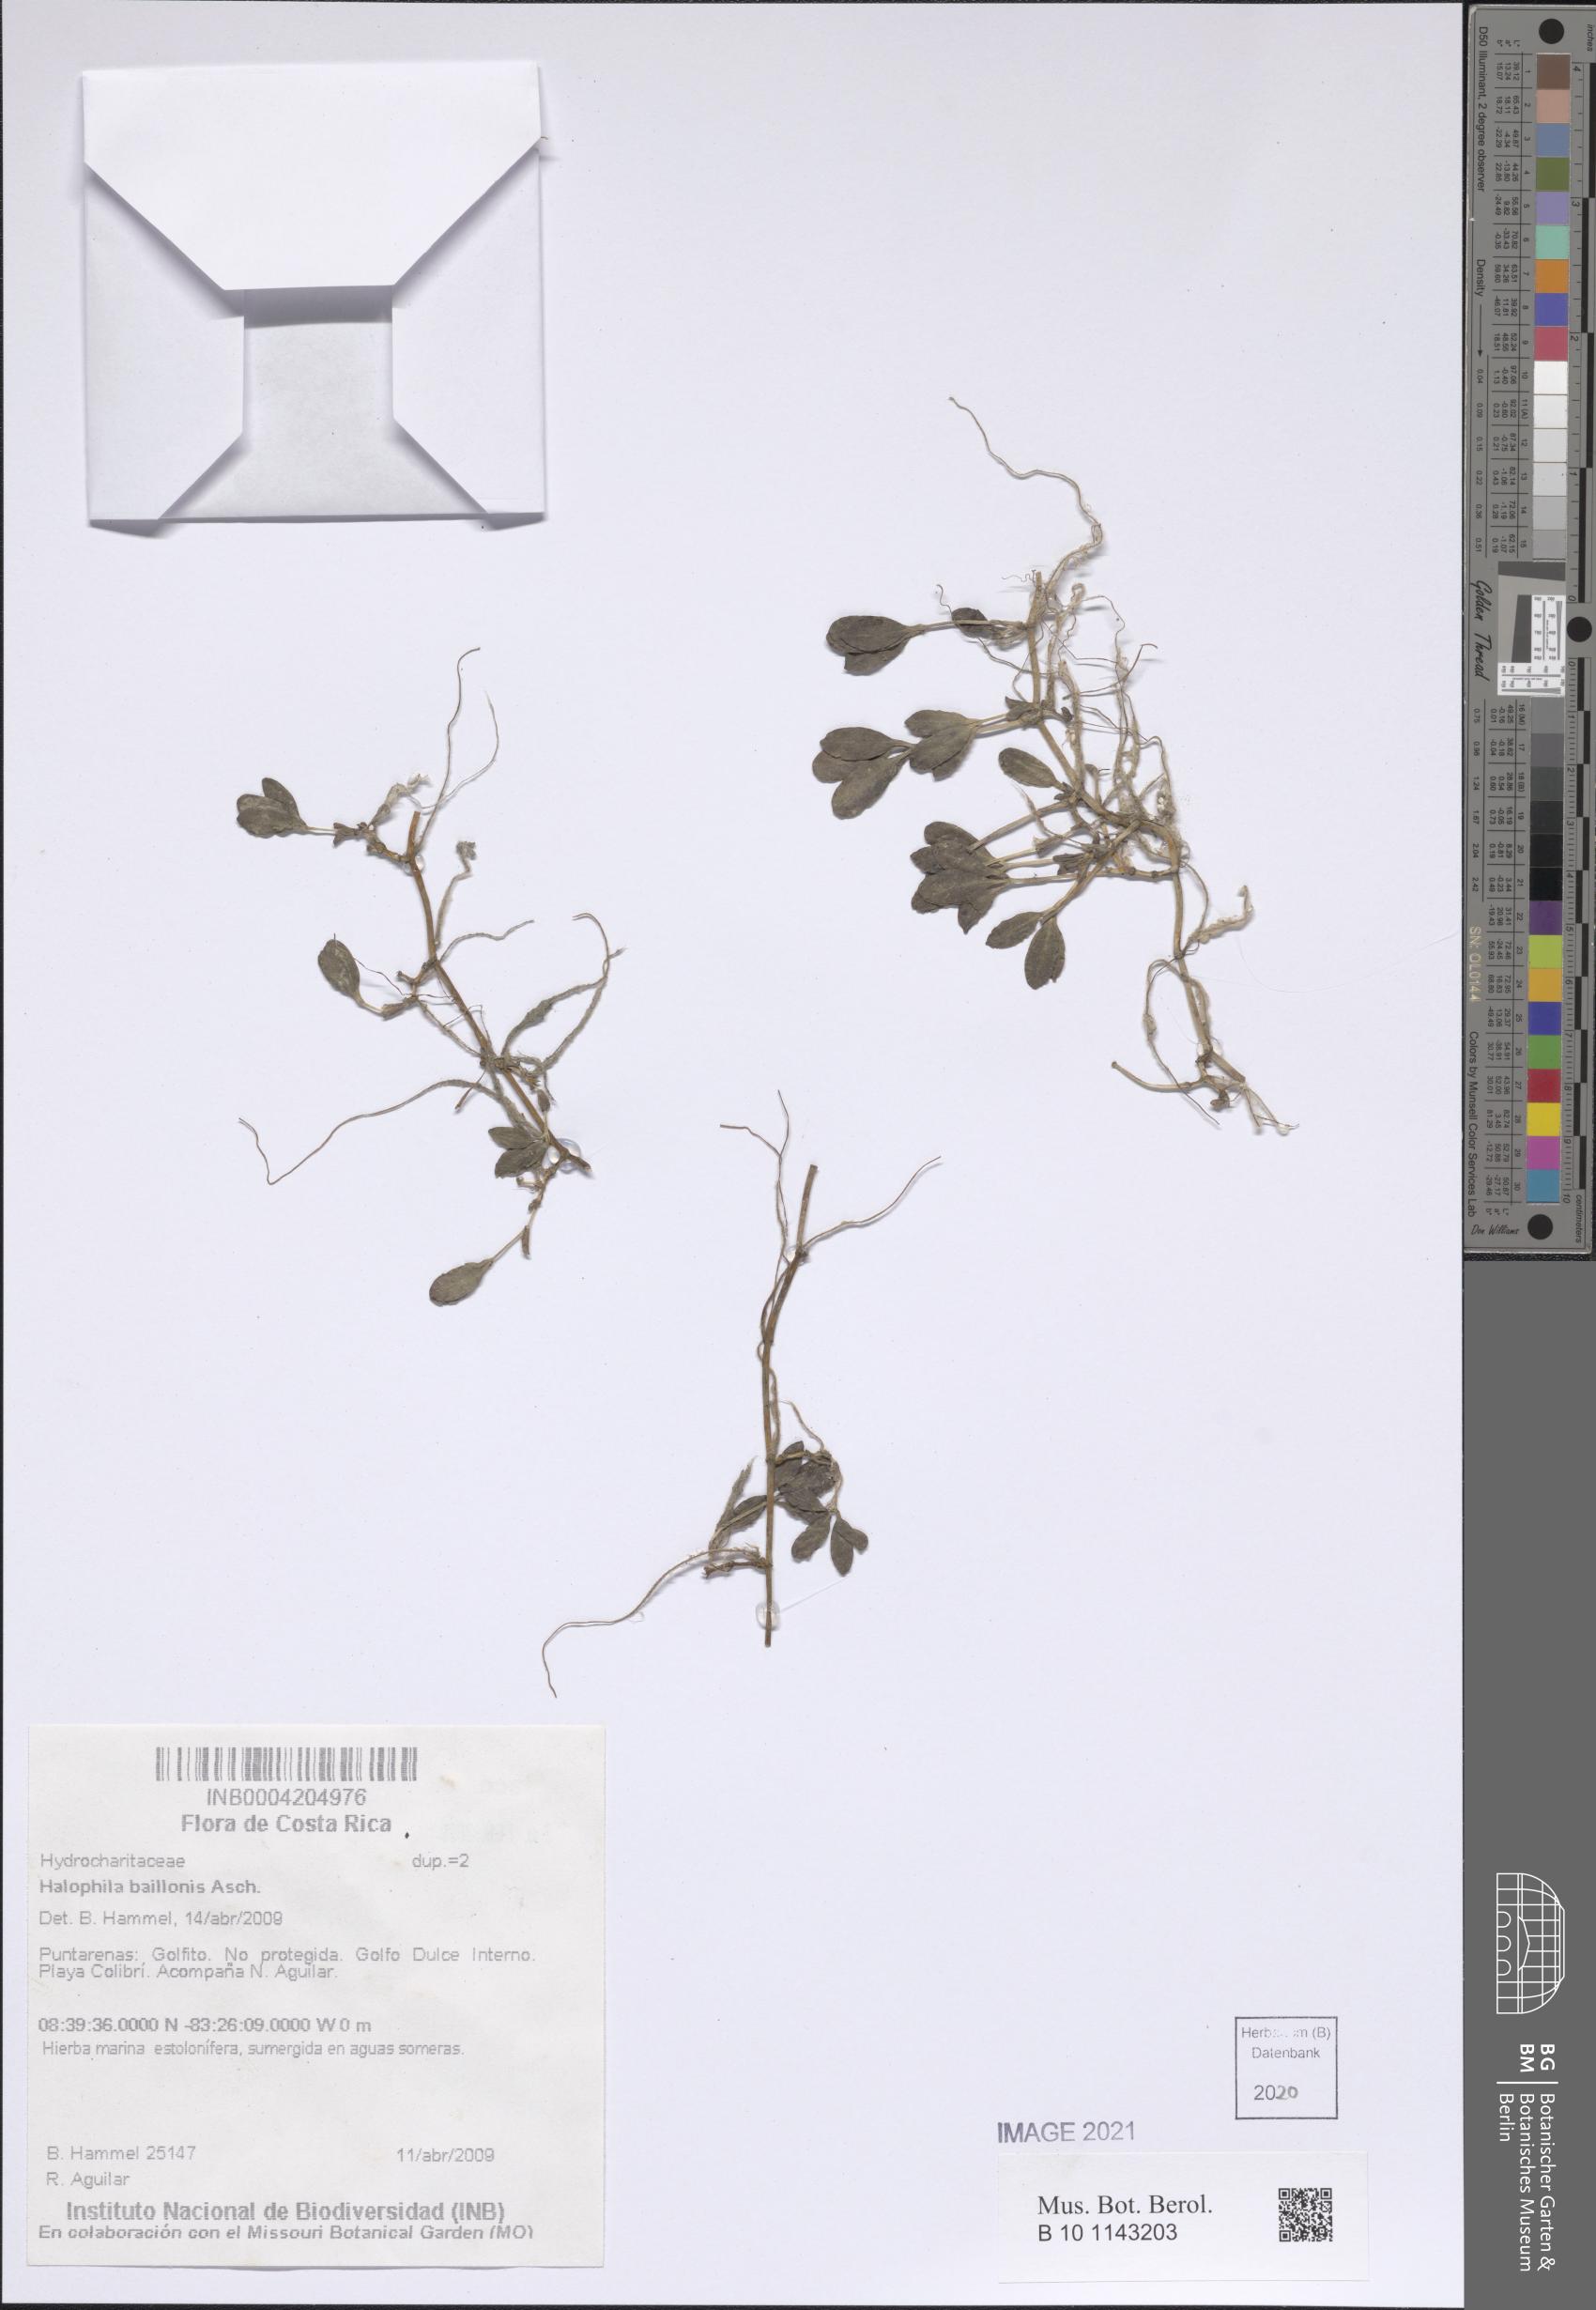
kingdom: Plantae
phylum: Tracheophyta
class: Liliopsida
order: Alismatales
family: Hydrocharitaceae
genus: Halophila
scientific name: Halophila baillonis
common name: Tapegrass
